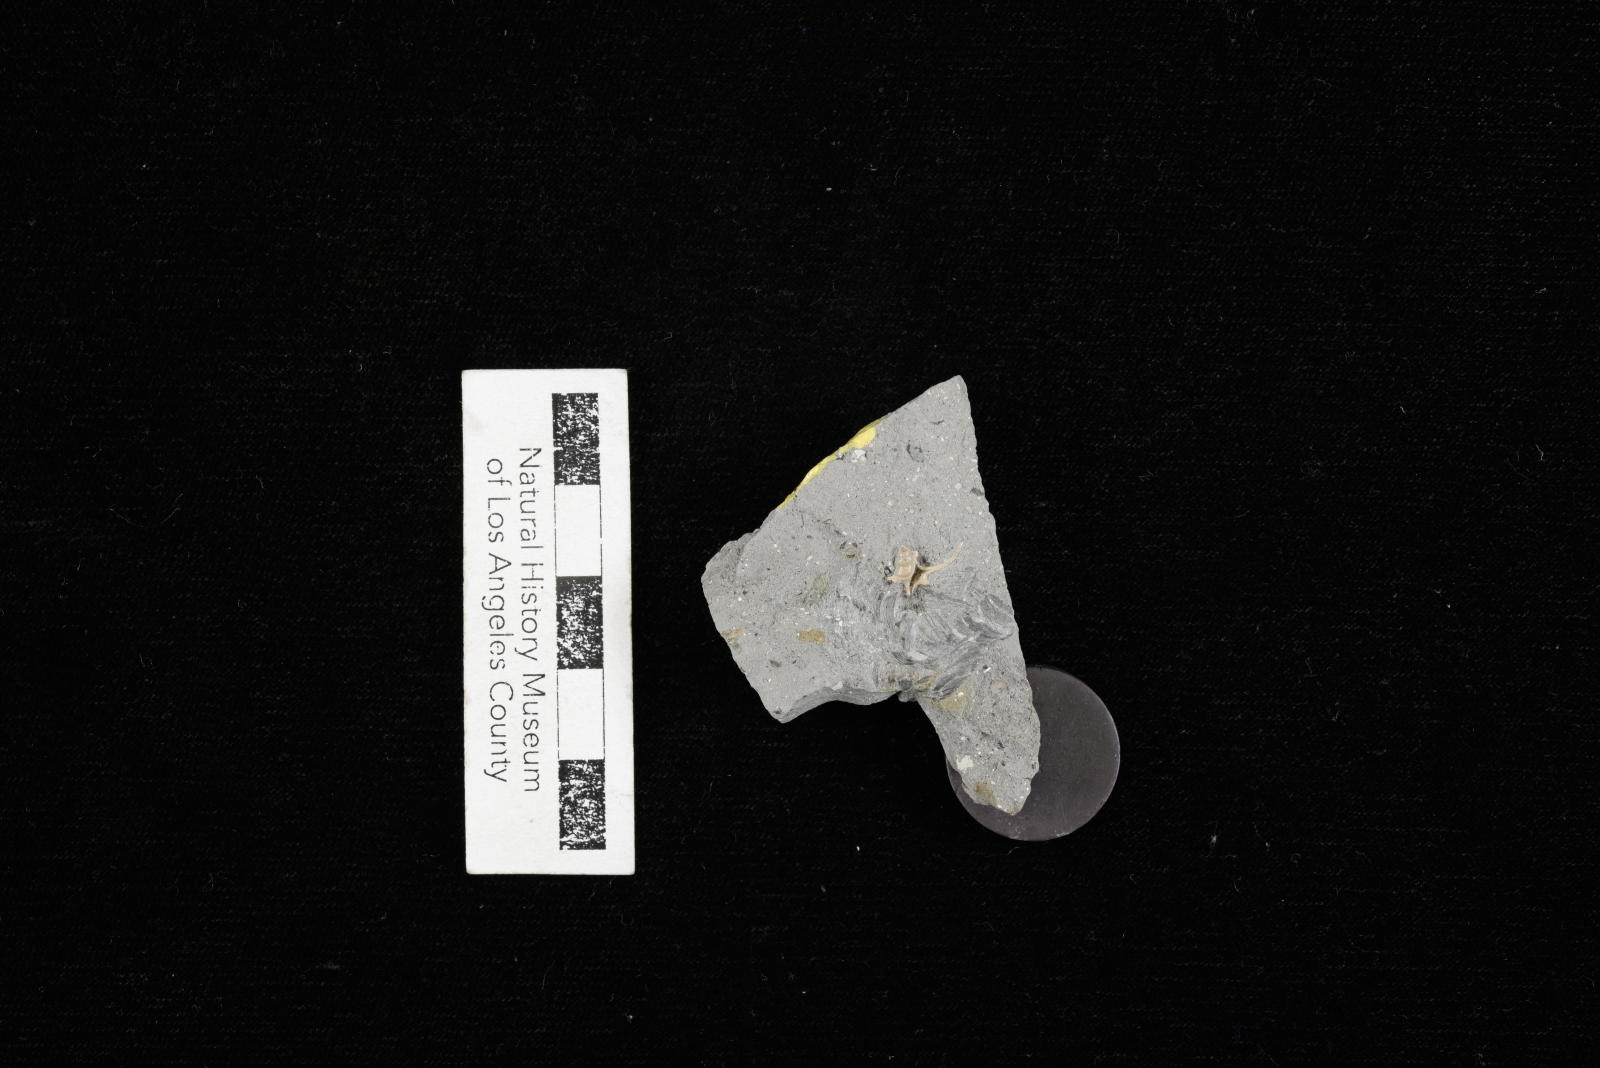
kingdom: Animalia
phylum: Mollusca
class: Gastropoda
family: Turritellidae
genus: Turritella
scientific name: Turritella chicoensis
